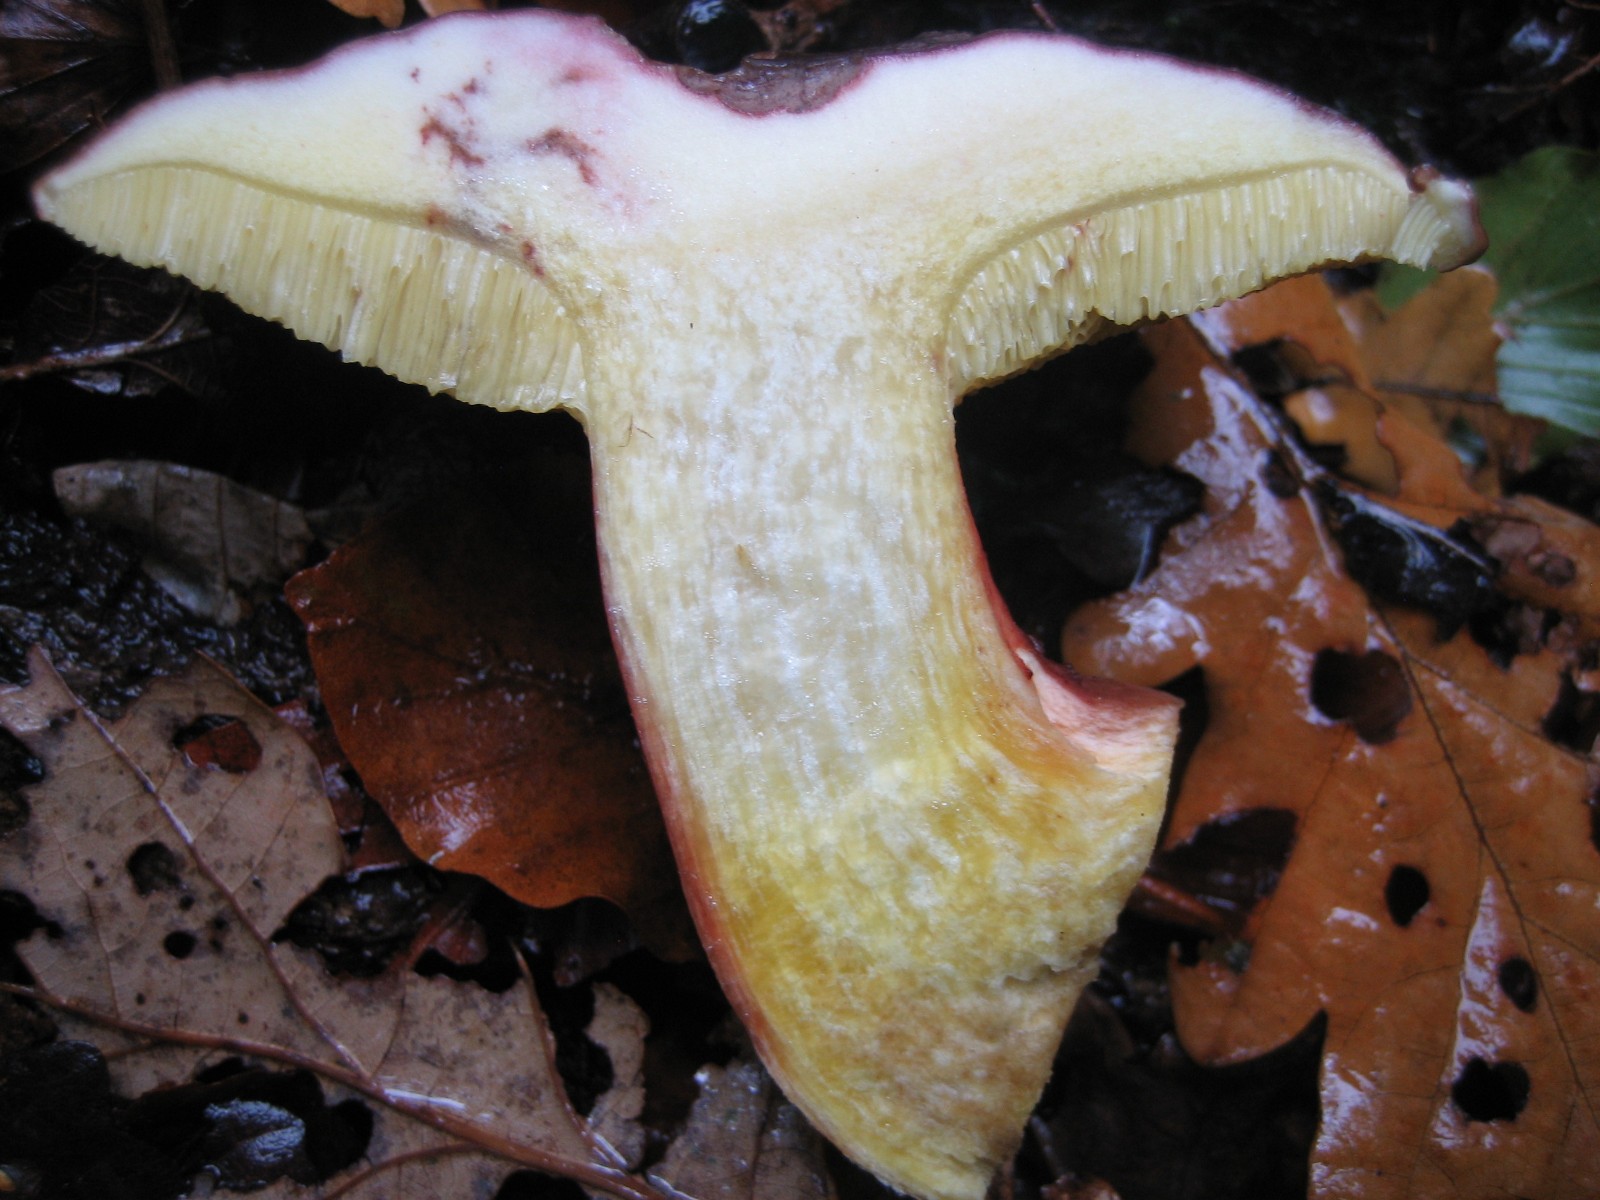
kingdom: Fungi
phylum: Basidiomycota
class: Agaricomycetes
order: Boletales
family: Boletaceae
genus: Xerocomellus
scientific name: Xerocomellus pruinatus
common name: dugget rørhat
